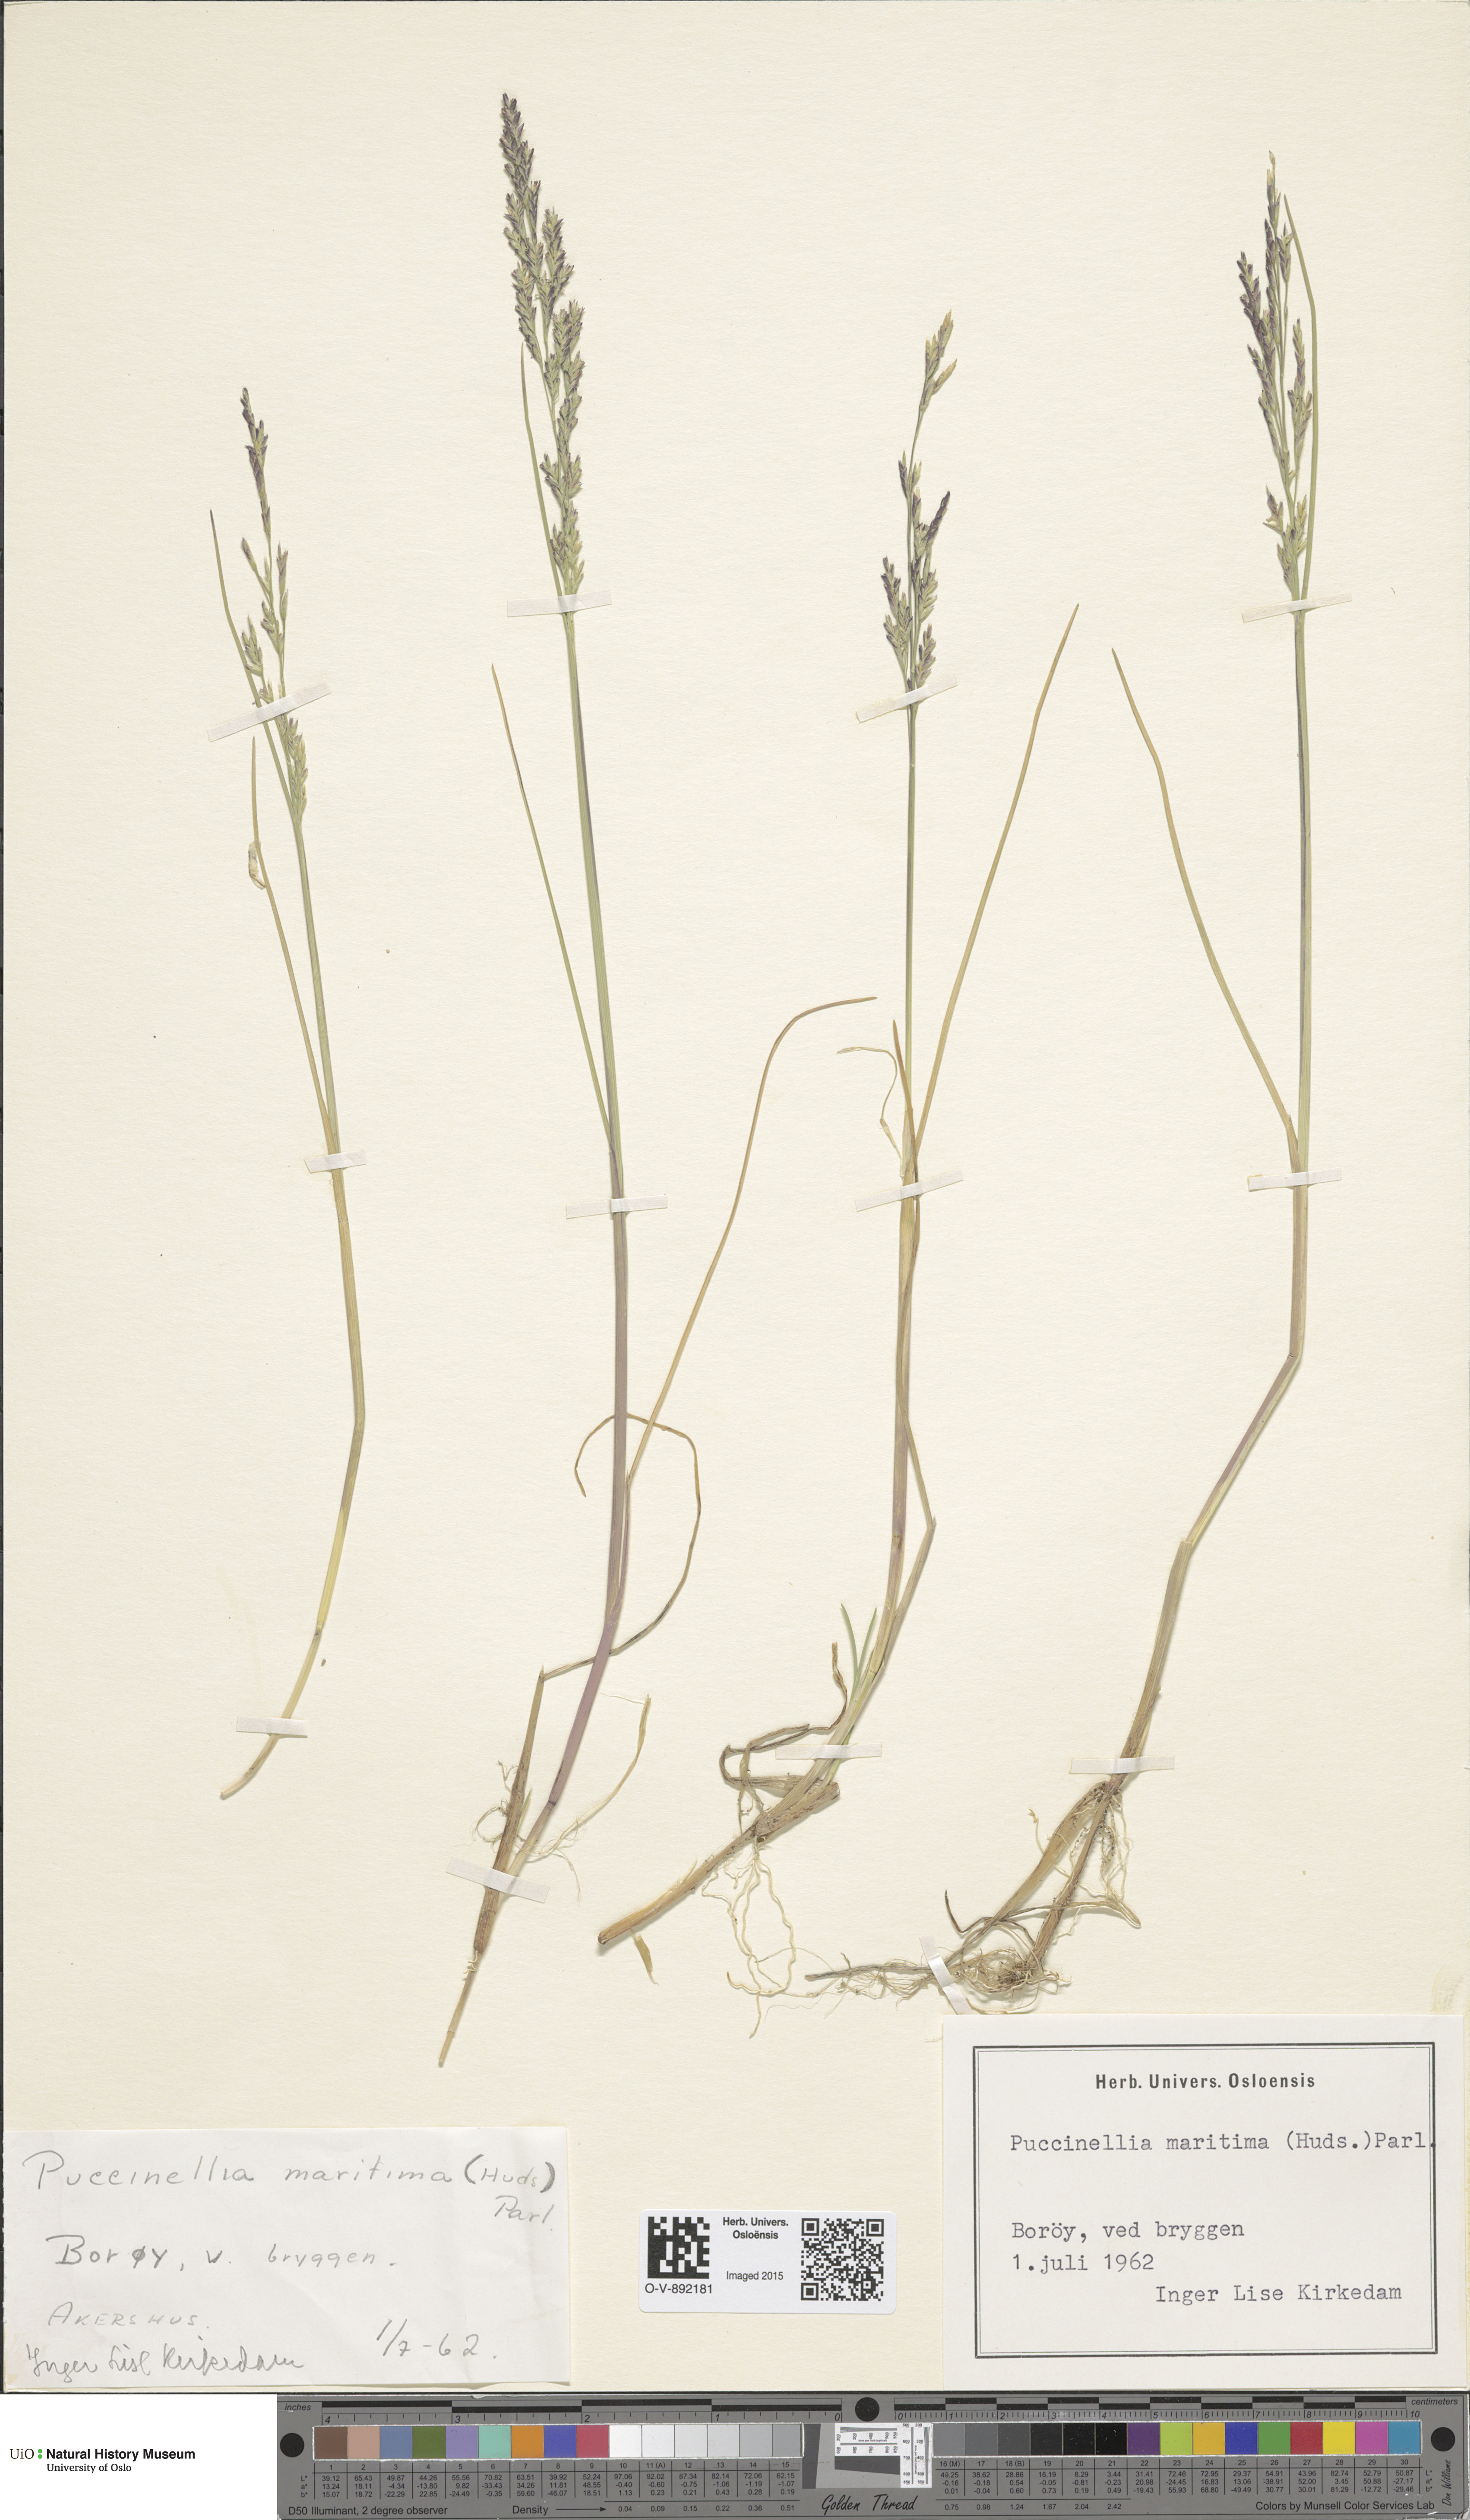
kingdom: Plantae
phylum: Tracheophyta
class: Liliopsida
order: Poales
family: Poaceae
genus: Puccinellia
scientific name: Puccinellia maritima
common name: Common saltmarsh grass
